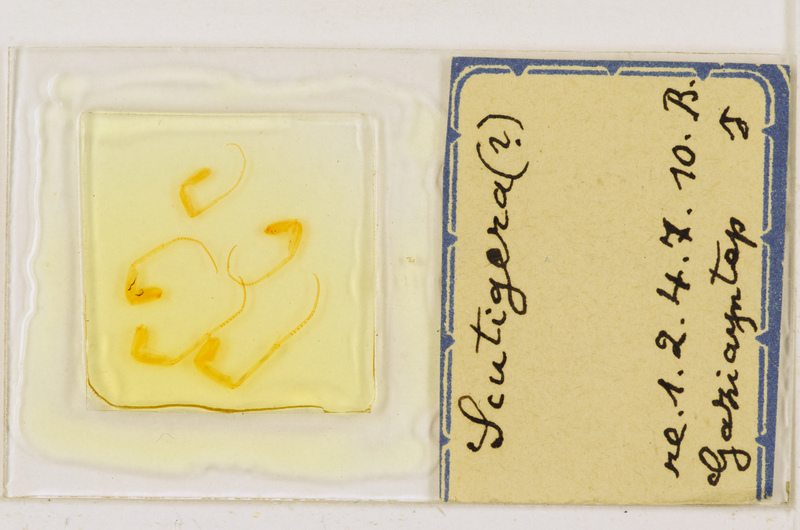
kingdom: Animalia
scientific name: Animalia
